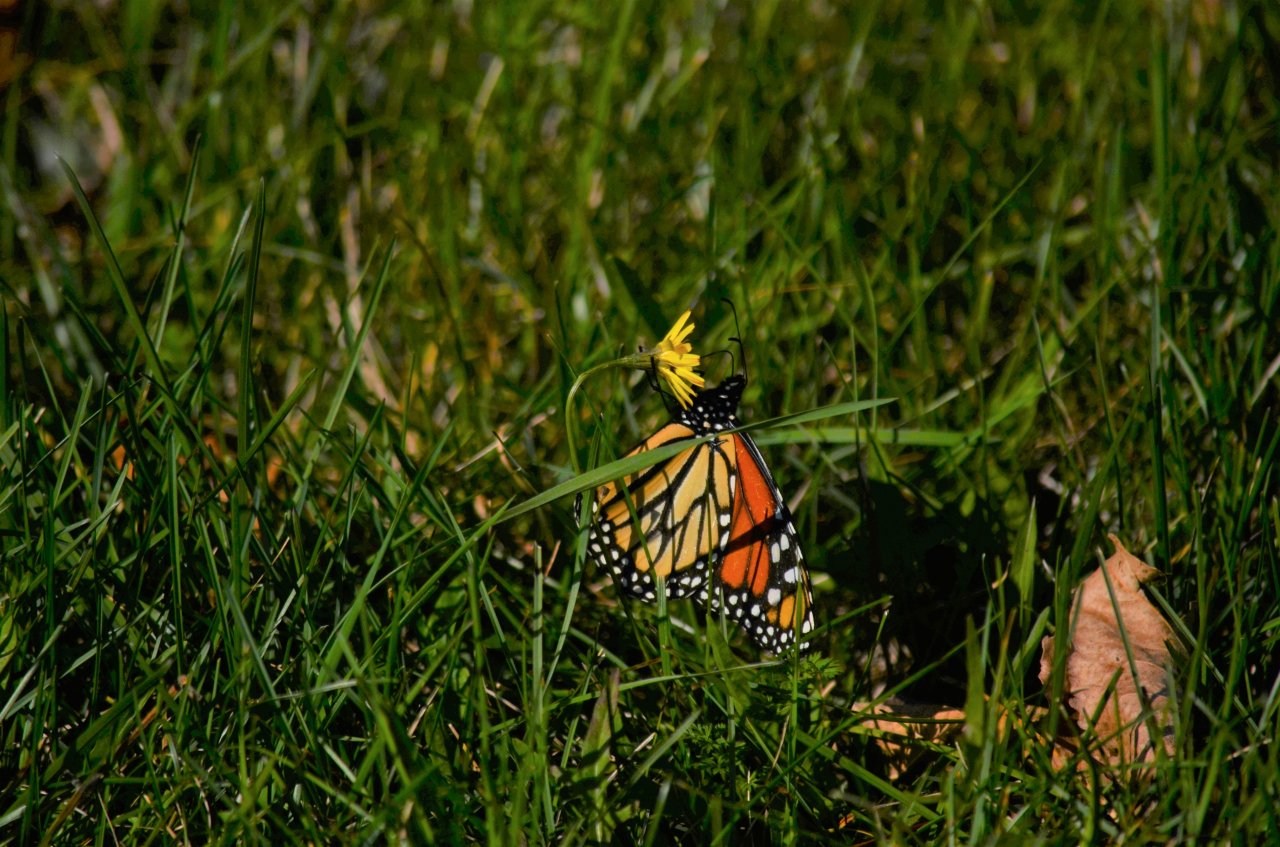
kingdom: Animalia
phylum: Arthropoda
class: Insecta
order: Lepidoptera
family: Nymphalidae
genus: Danaus
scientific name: Danaus plexippus
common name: Monarch
